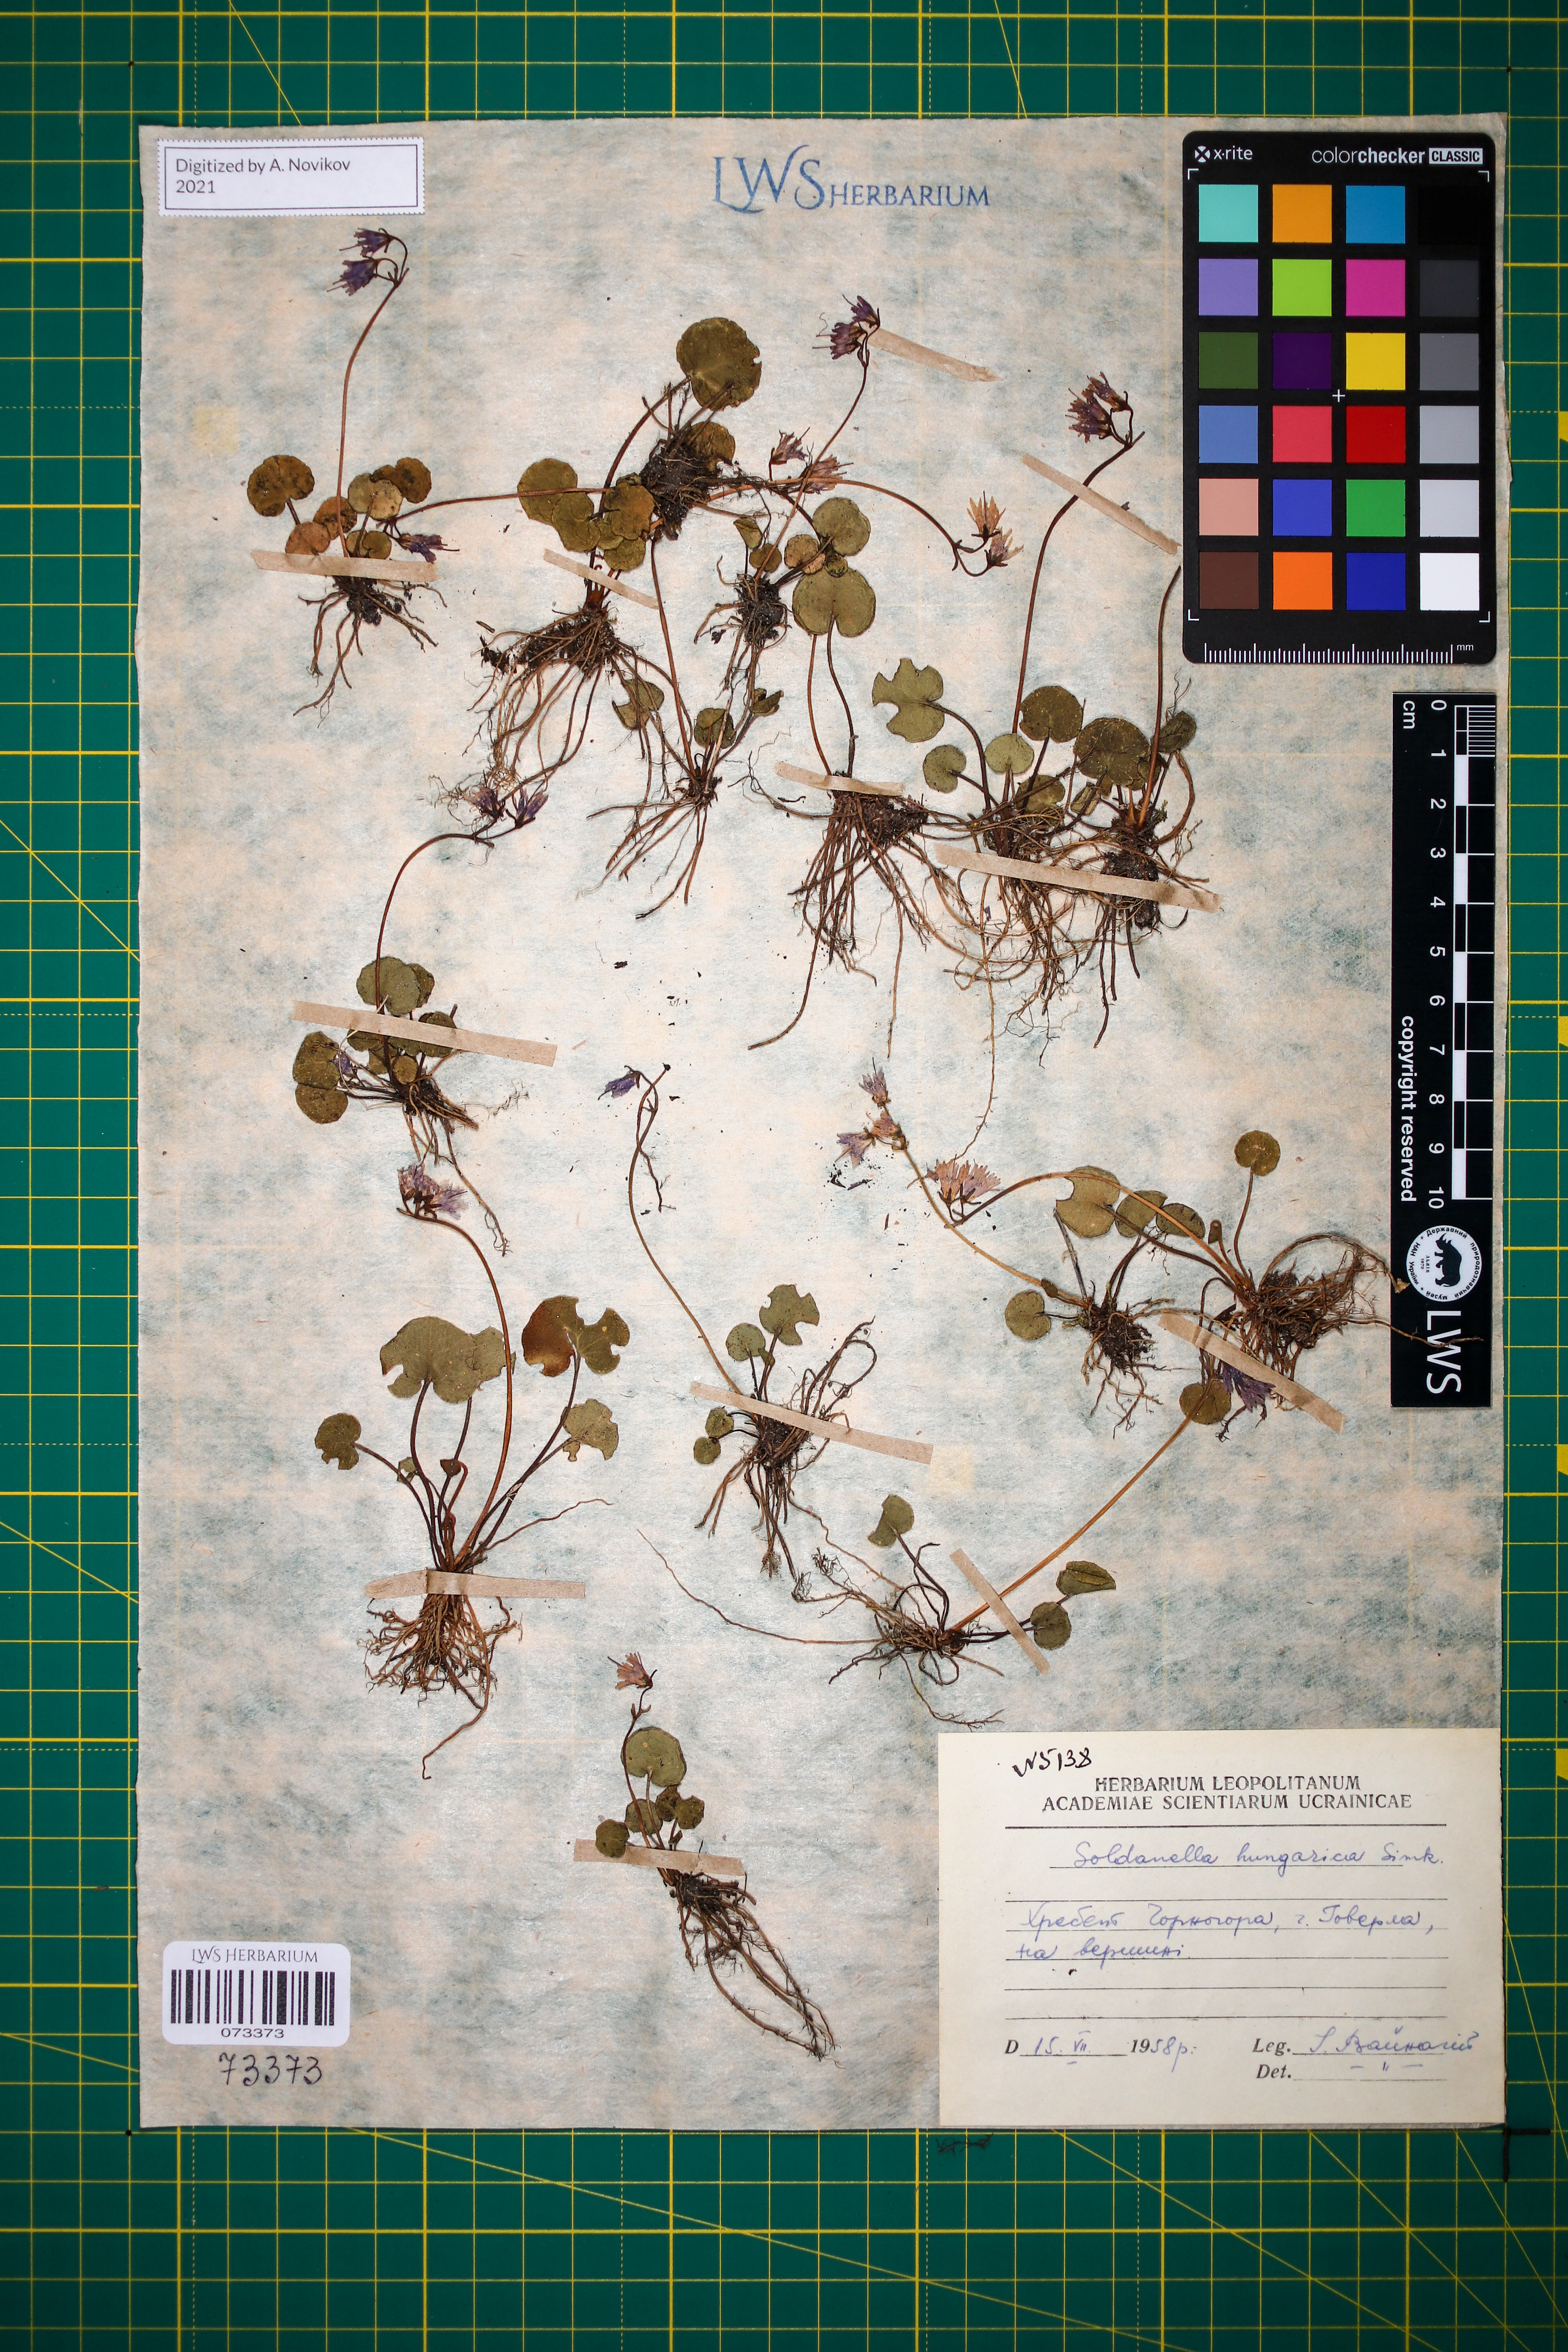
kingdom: Plantae
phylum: Tracheophyta
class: Magnoliopsida
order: Ericales
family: Primulaceae
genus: Soldanella
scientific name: Soldanella hungarica
